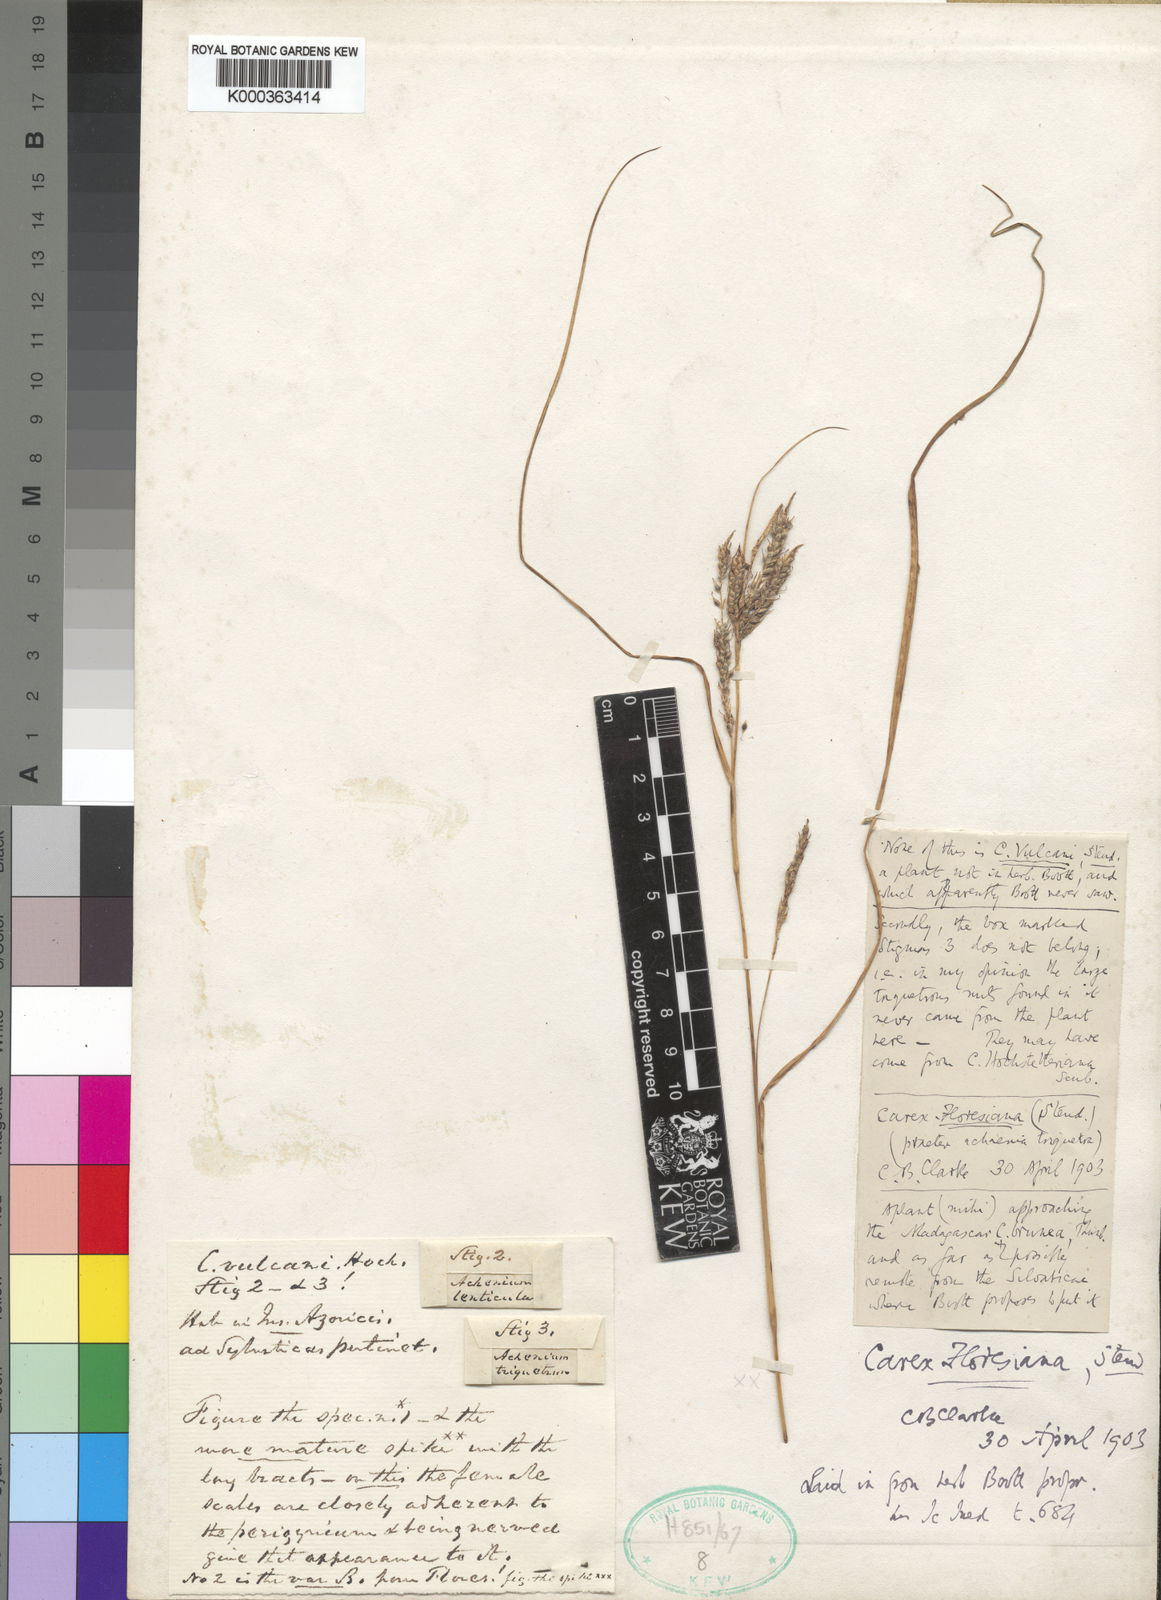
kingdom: Plantae
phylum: Tracheophyta
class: Liliopsida
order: Poales
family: Cyperaceae
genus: Carex
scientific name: Carex vulcani
